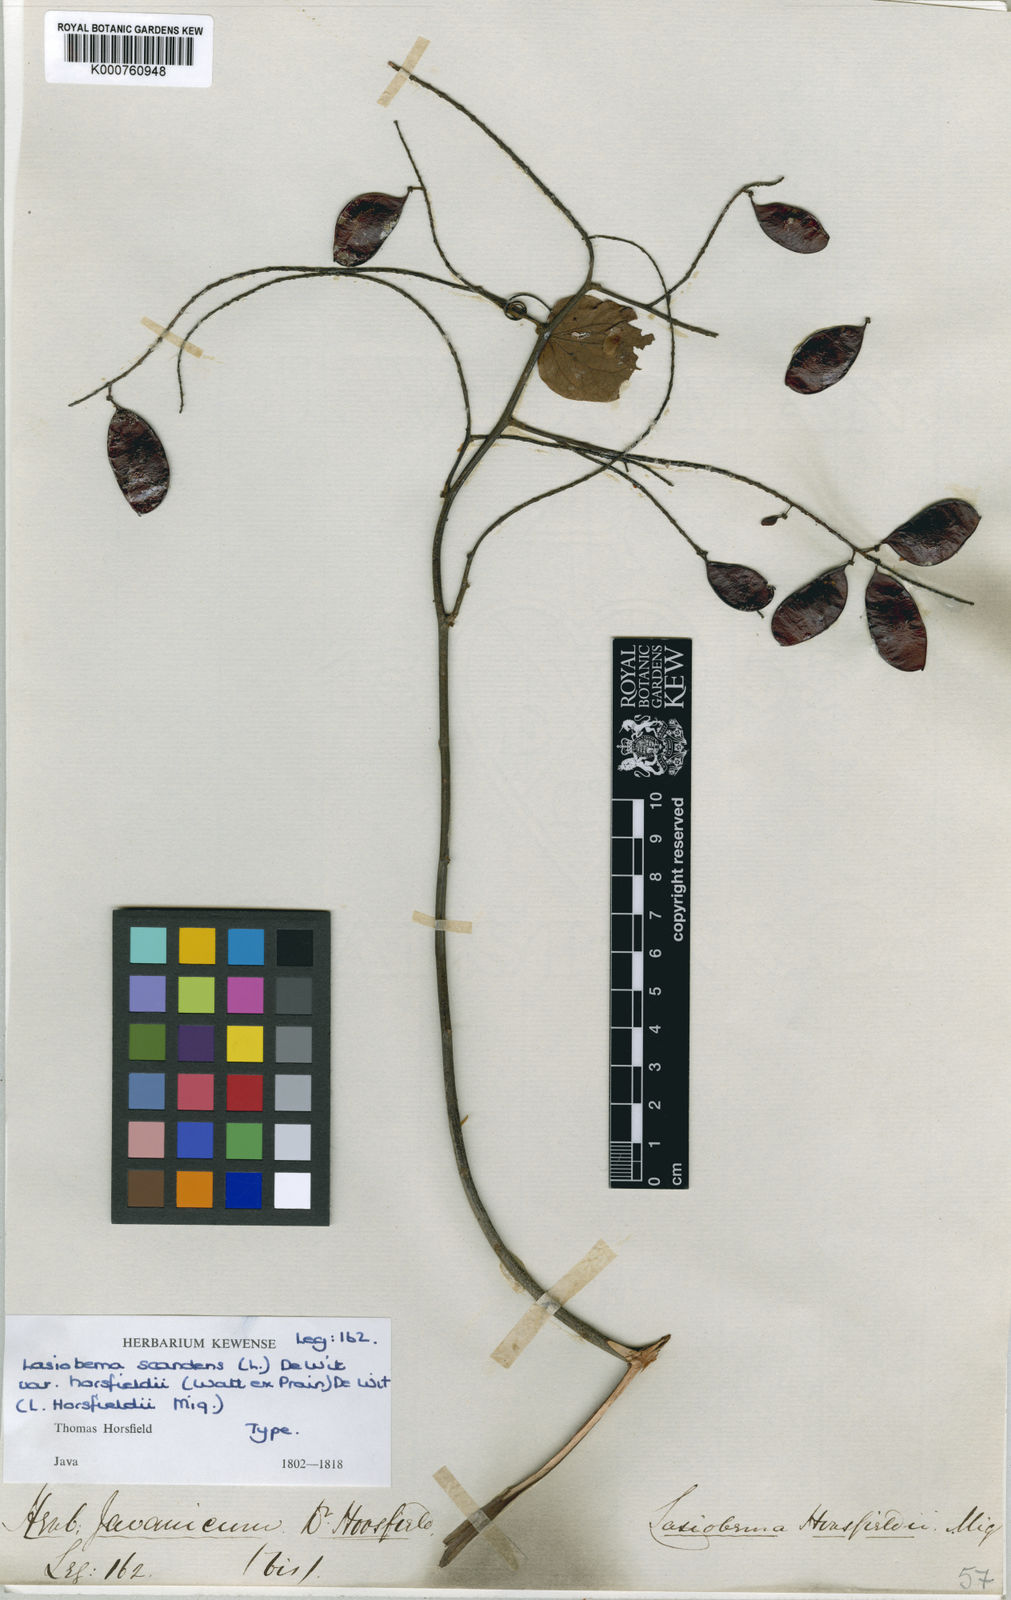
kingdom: Plantae
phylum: Tracheophyta
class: Magnoliopsida
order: Fabales
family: Fabaceae
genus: Phanera
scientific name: Phanera scandens
